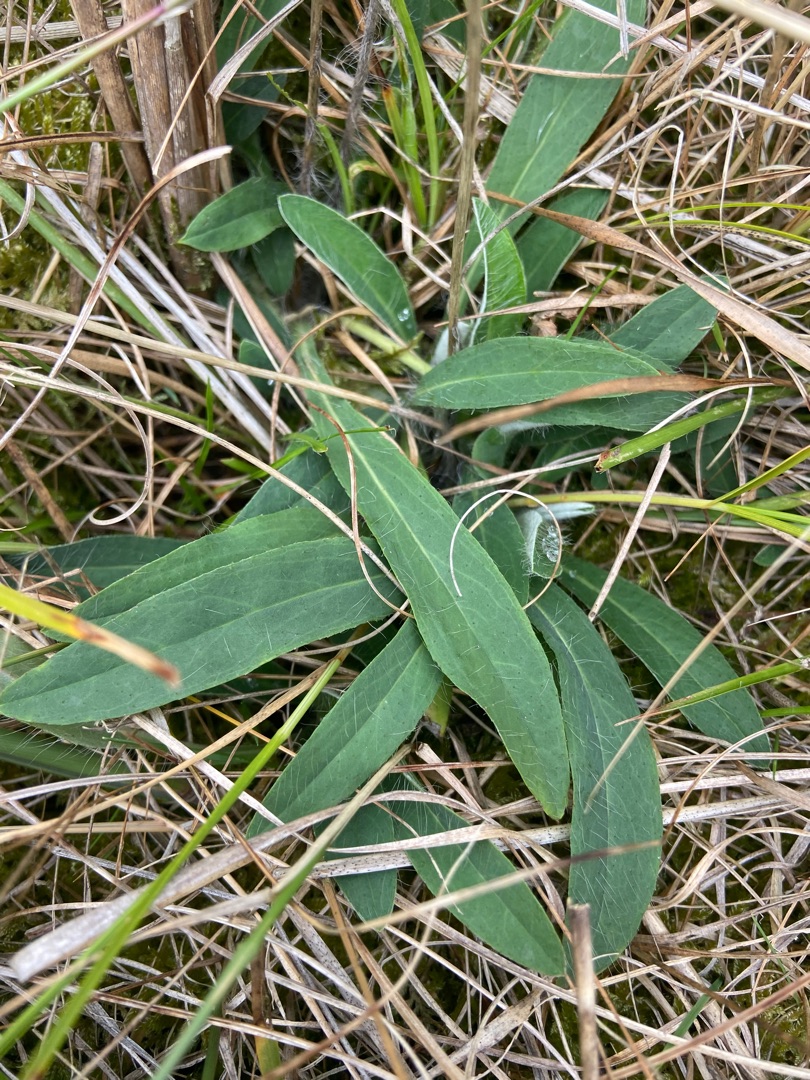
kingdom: Plantae
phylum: Tracheophyta
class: Magnoliopsida
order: Asterales
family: Asteraceae
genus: Pilosella
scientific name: Pilosella officinarum
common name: Håret høgeurt
